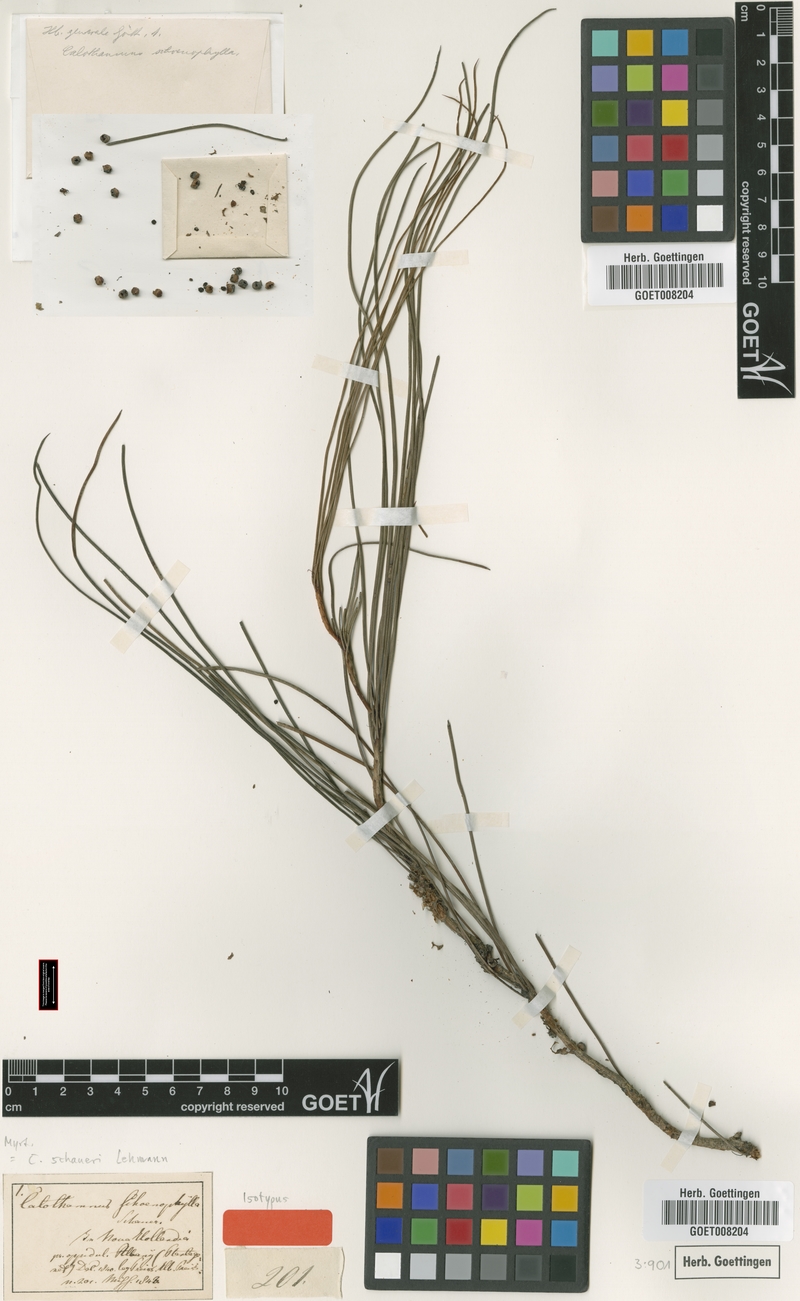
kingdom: Plantae
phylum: Tracheophyta
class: Magnoliopsida
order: Myrtales
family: Myrtaceae
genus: Melaleuca
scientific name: Melaleuca schaueri
